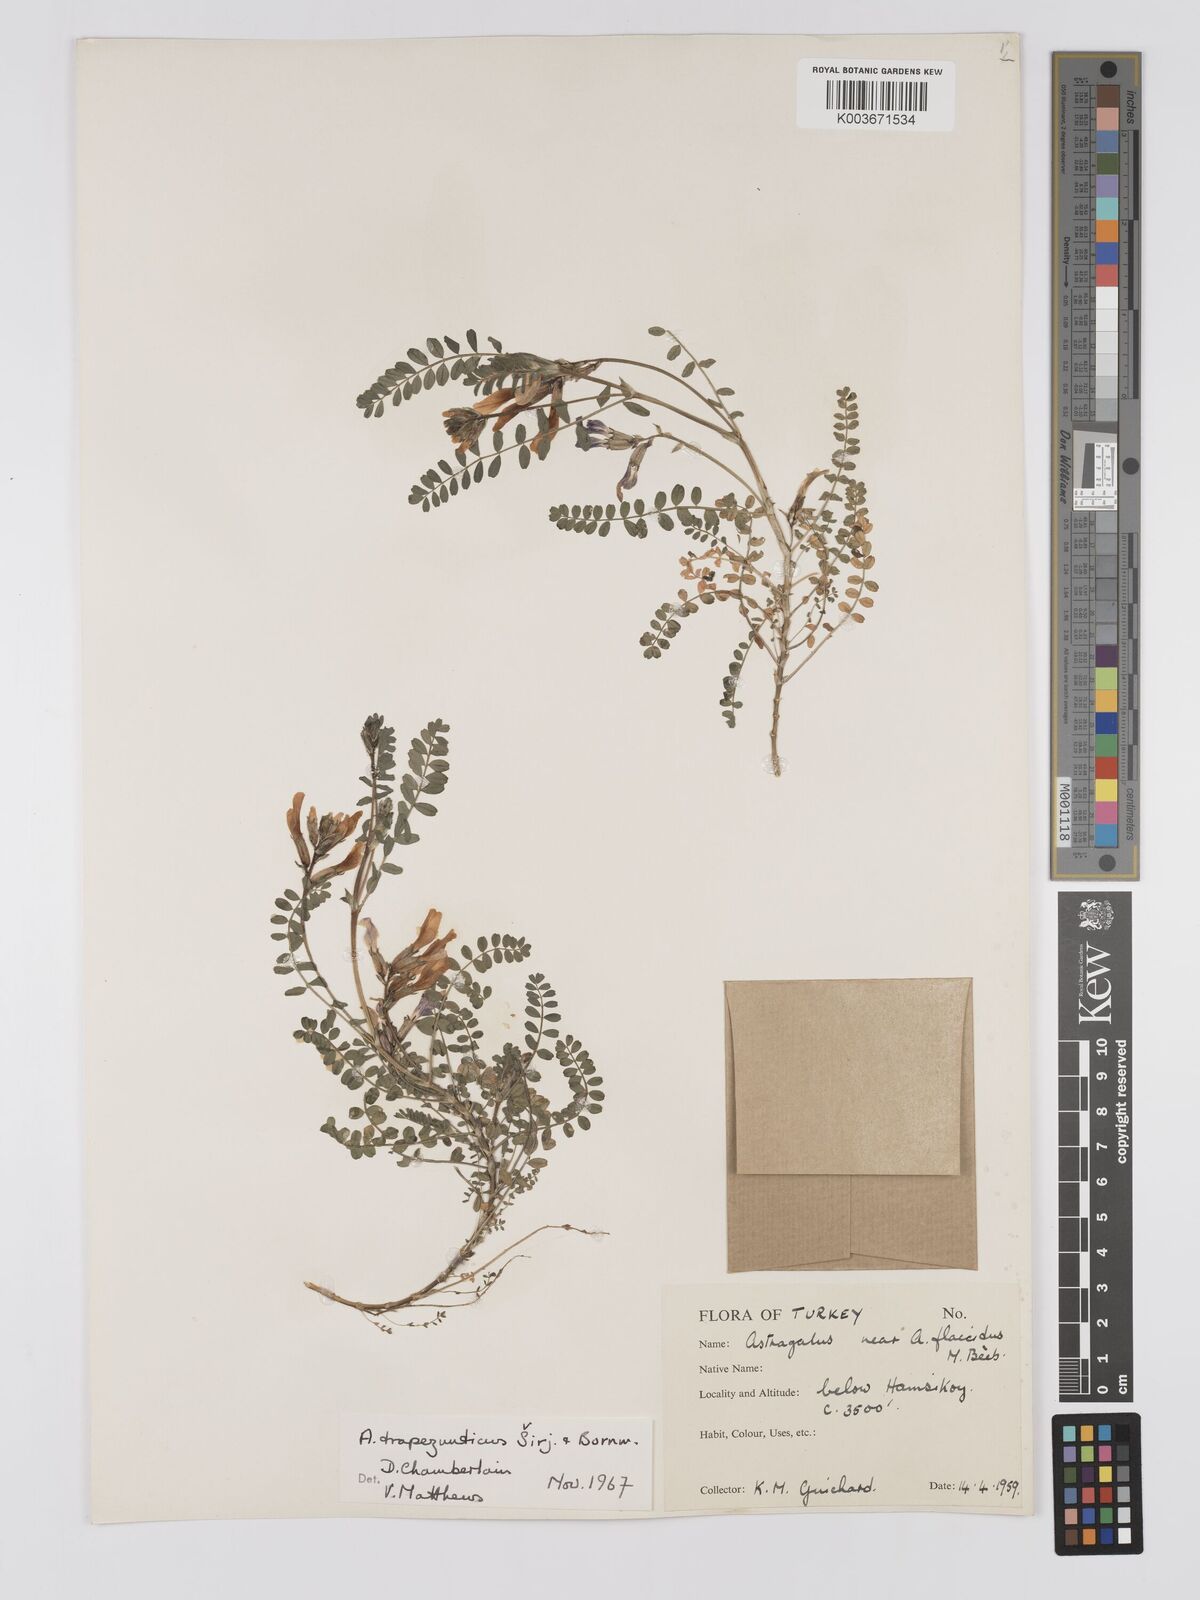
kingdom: Plantae
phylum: Tracheophyta
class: Magnoliopsida
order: Fabales
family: Fabaceae
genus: Astragalus
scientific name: Astragalus viridissimus
